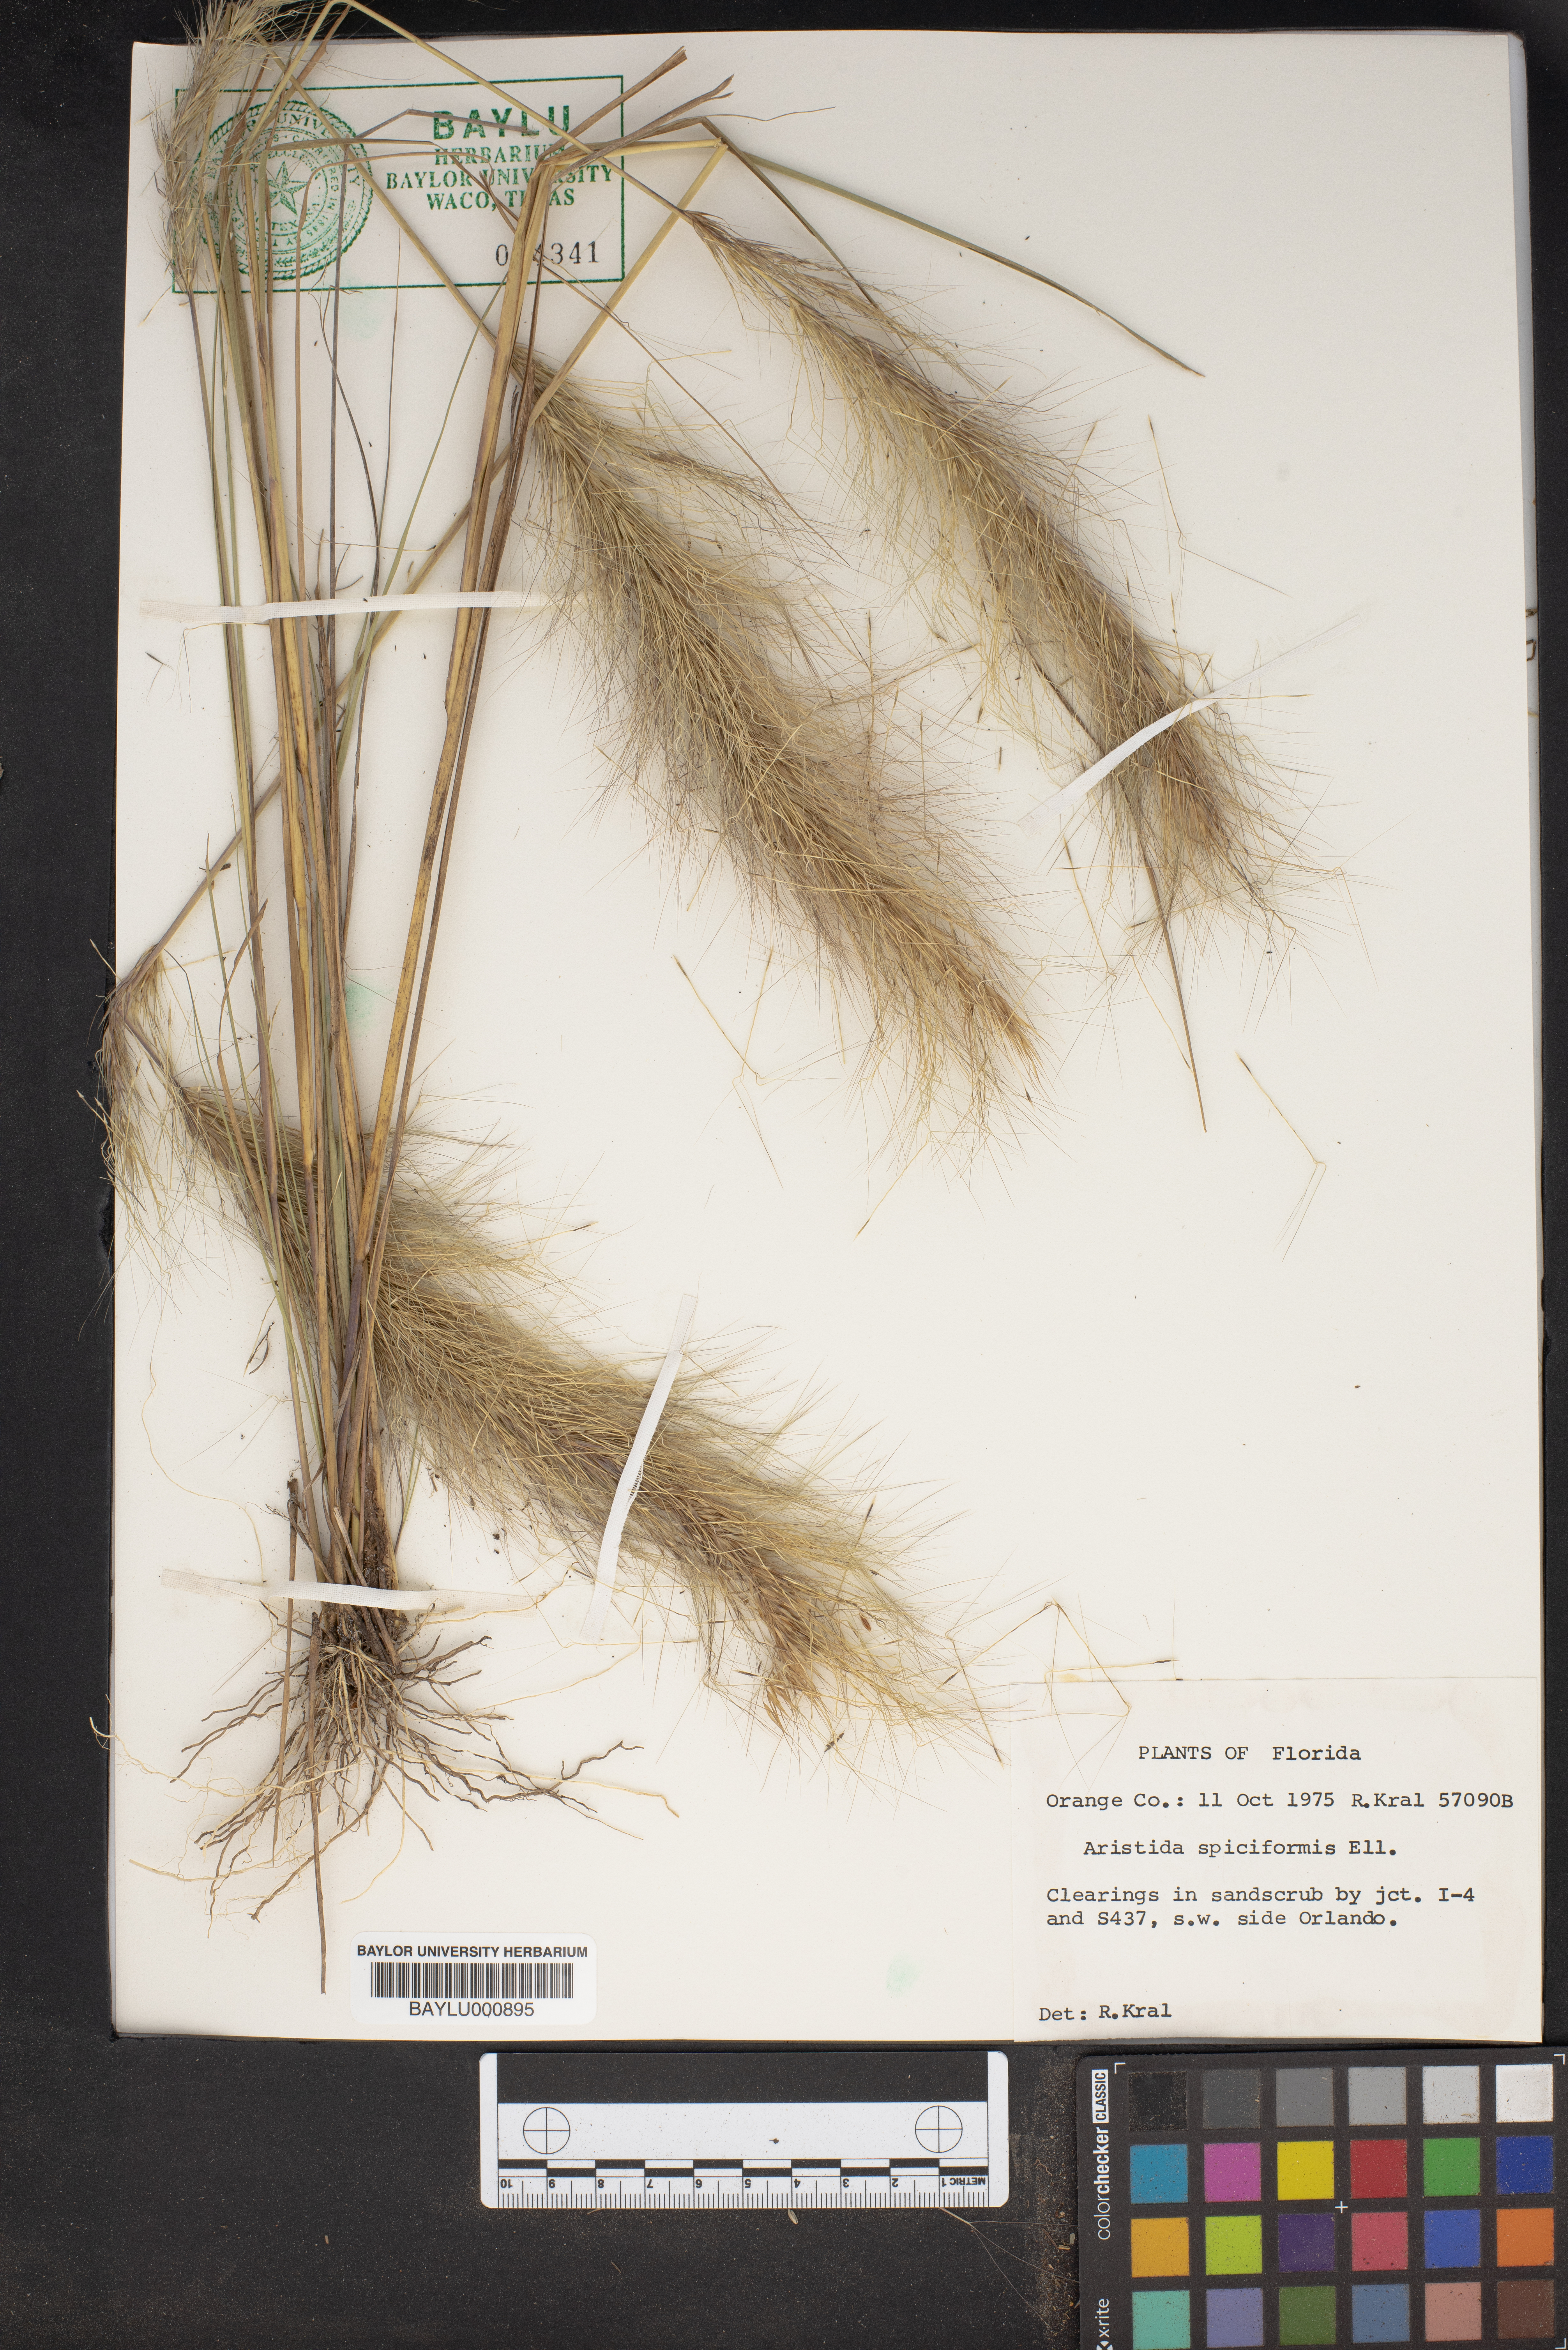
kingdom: Plantae
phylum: Tracheophyta
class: Liliopsida
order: Poales
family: Poaceae
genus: Aristida
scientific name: Aristida spiciformis
